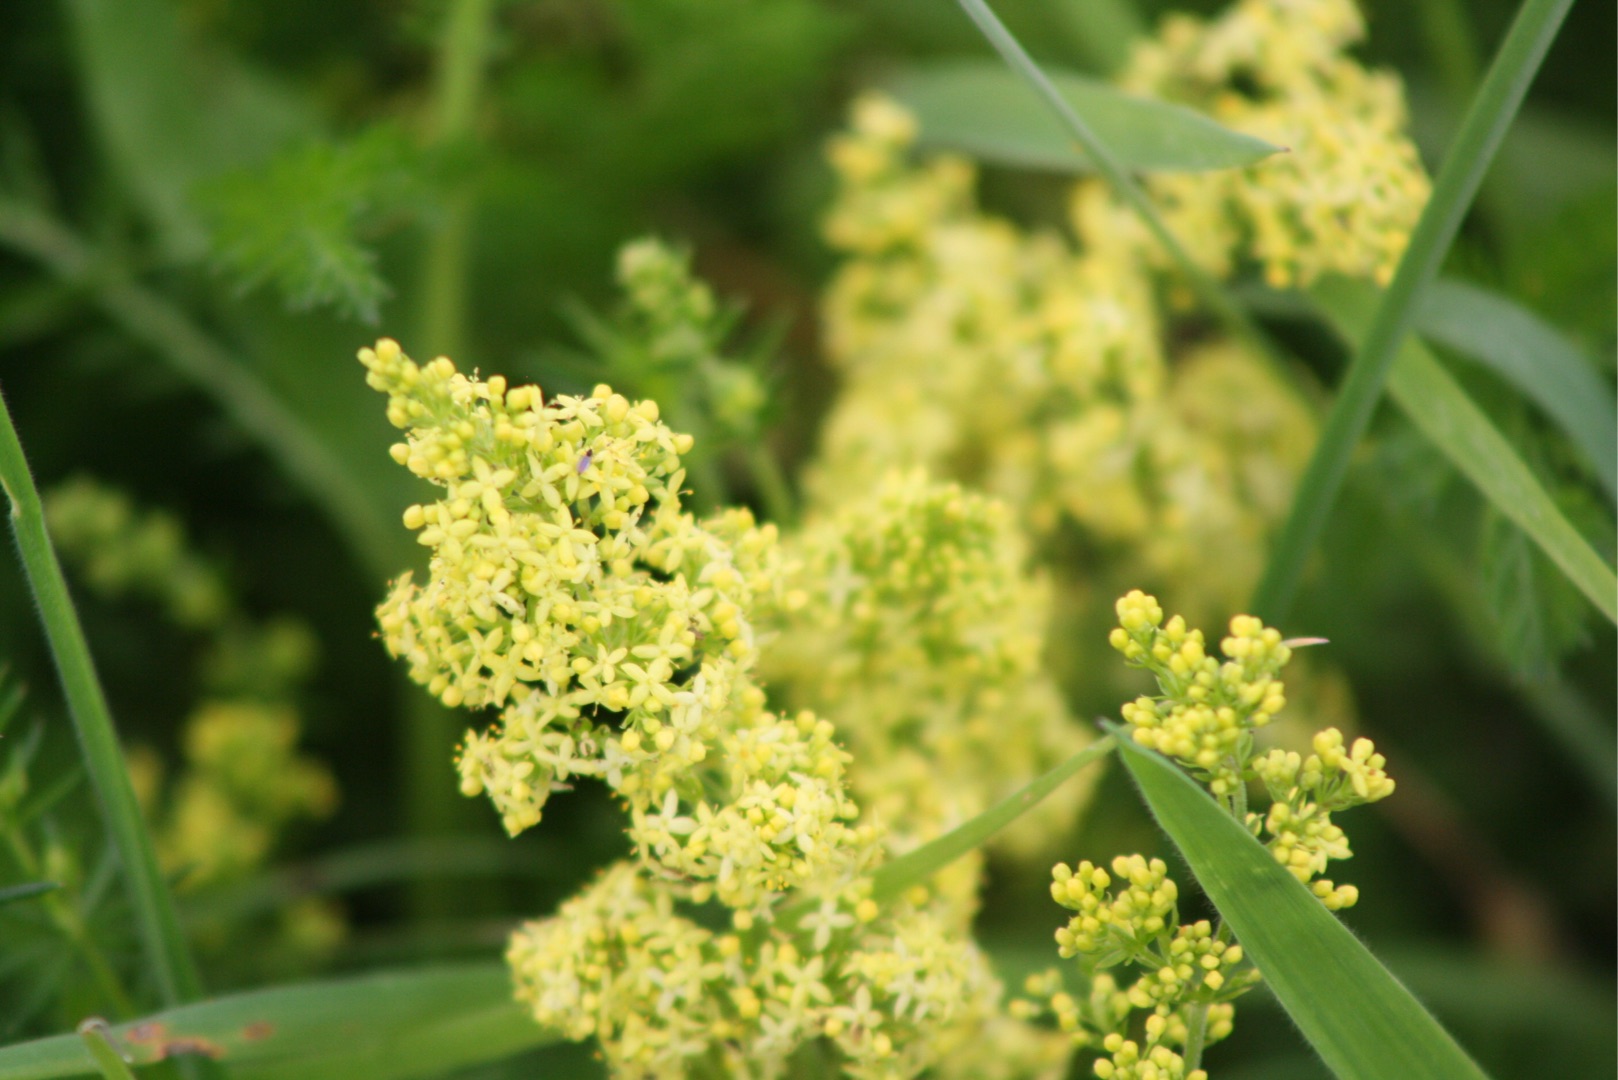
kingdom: Plantae
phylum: Tracheophyta
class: Magnoliopsida
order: Gentianales
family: Rubiaceae
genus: Galium
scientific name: Galium verum
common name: Gul snerre
